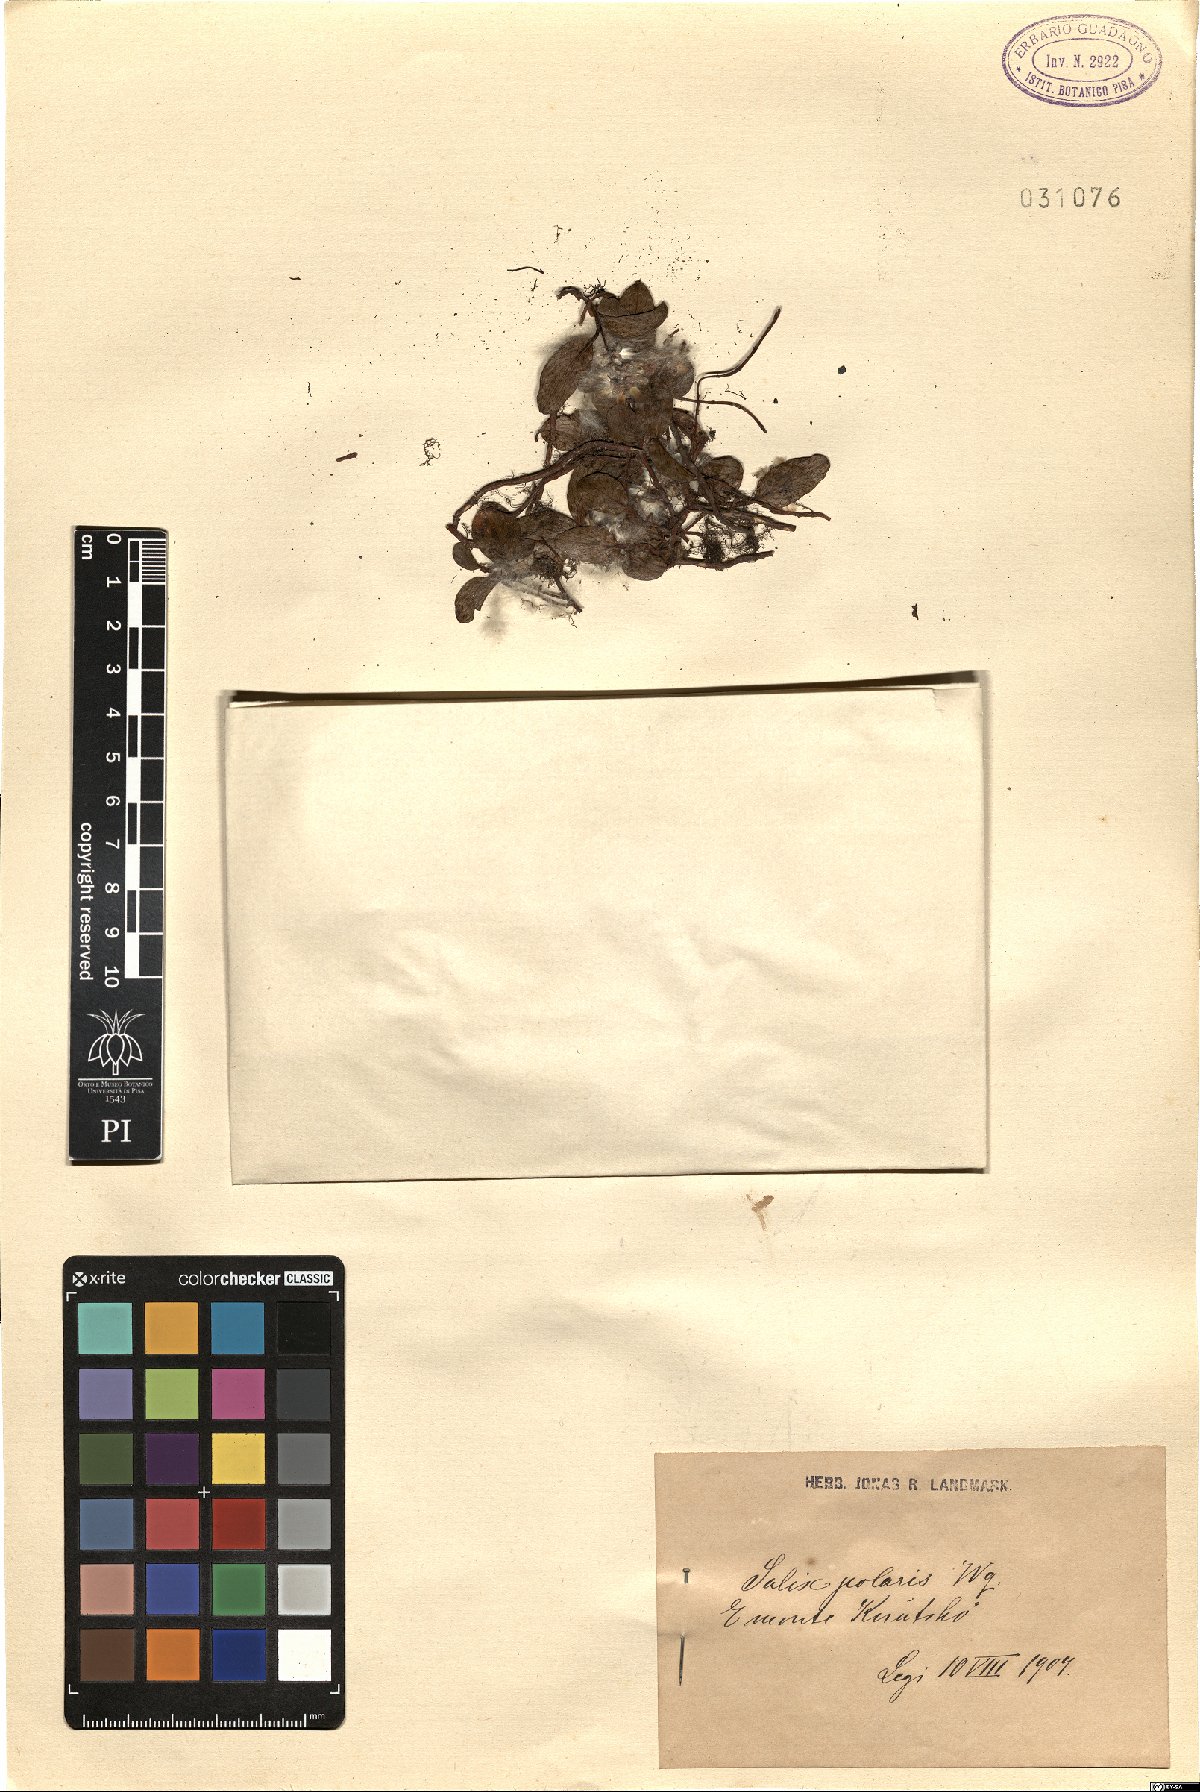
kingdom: Plantae
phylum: Tracheophyta
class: Magnoliopsida
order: Malpighiales
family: Salicaceae
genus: Salix
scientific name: Salix polaris
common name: Polar willow
